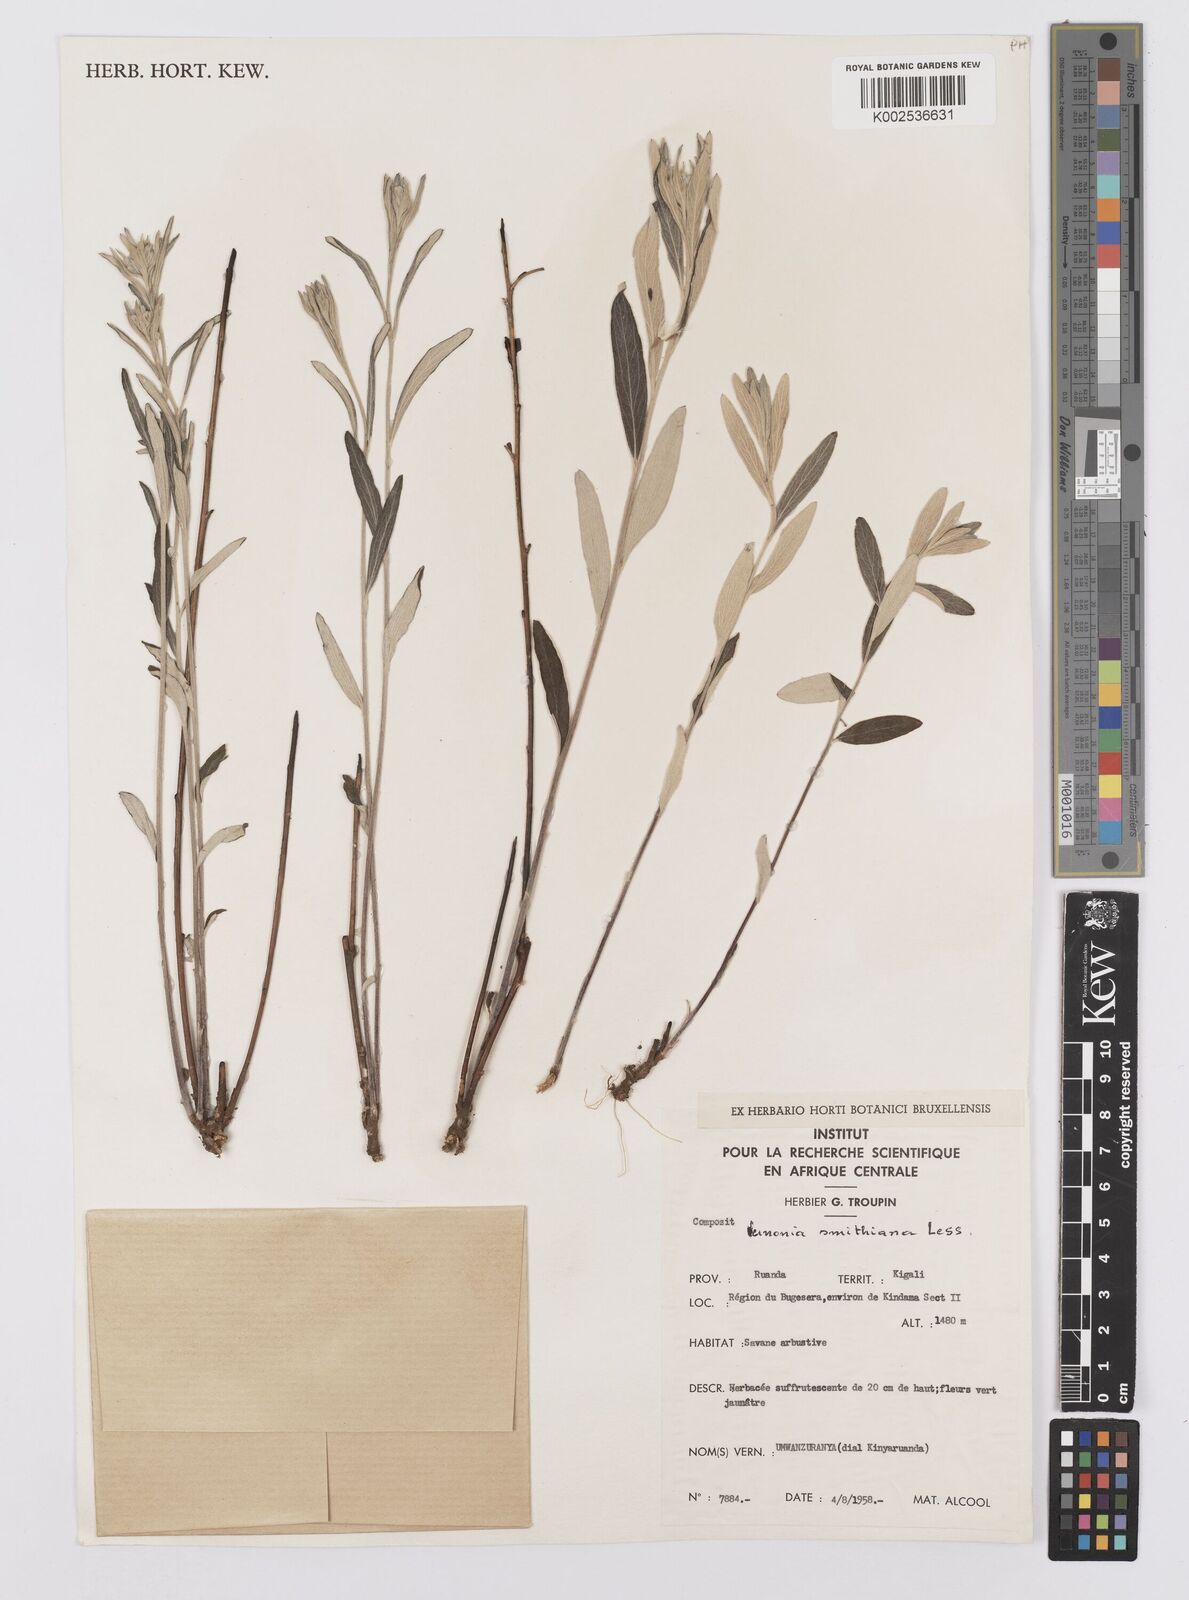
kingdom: Plantae
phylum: Tracheophyta
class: Magnoliopsida
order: Asterales
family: Asteraceae
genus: Hilliardiella
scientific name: Hilliardiella smithiana
